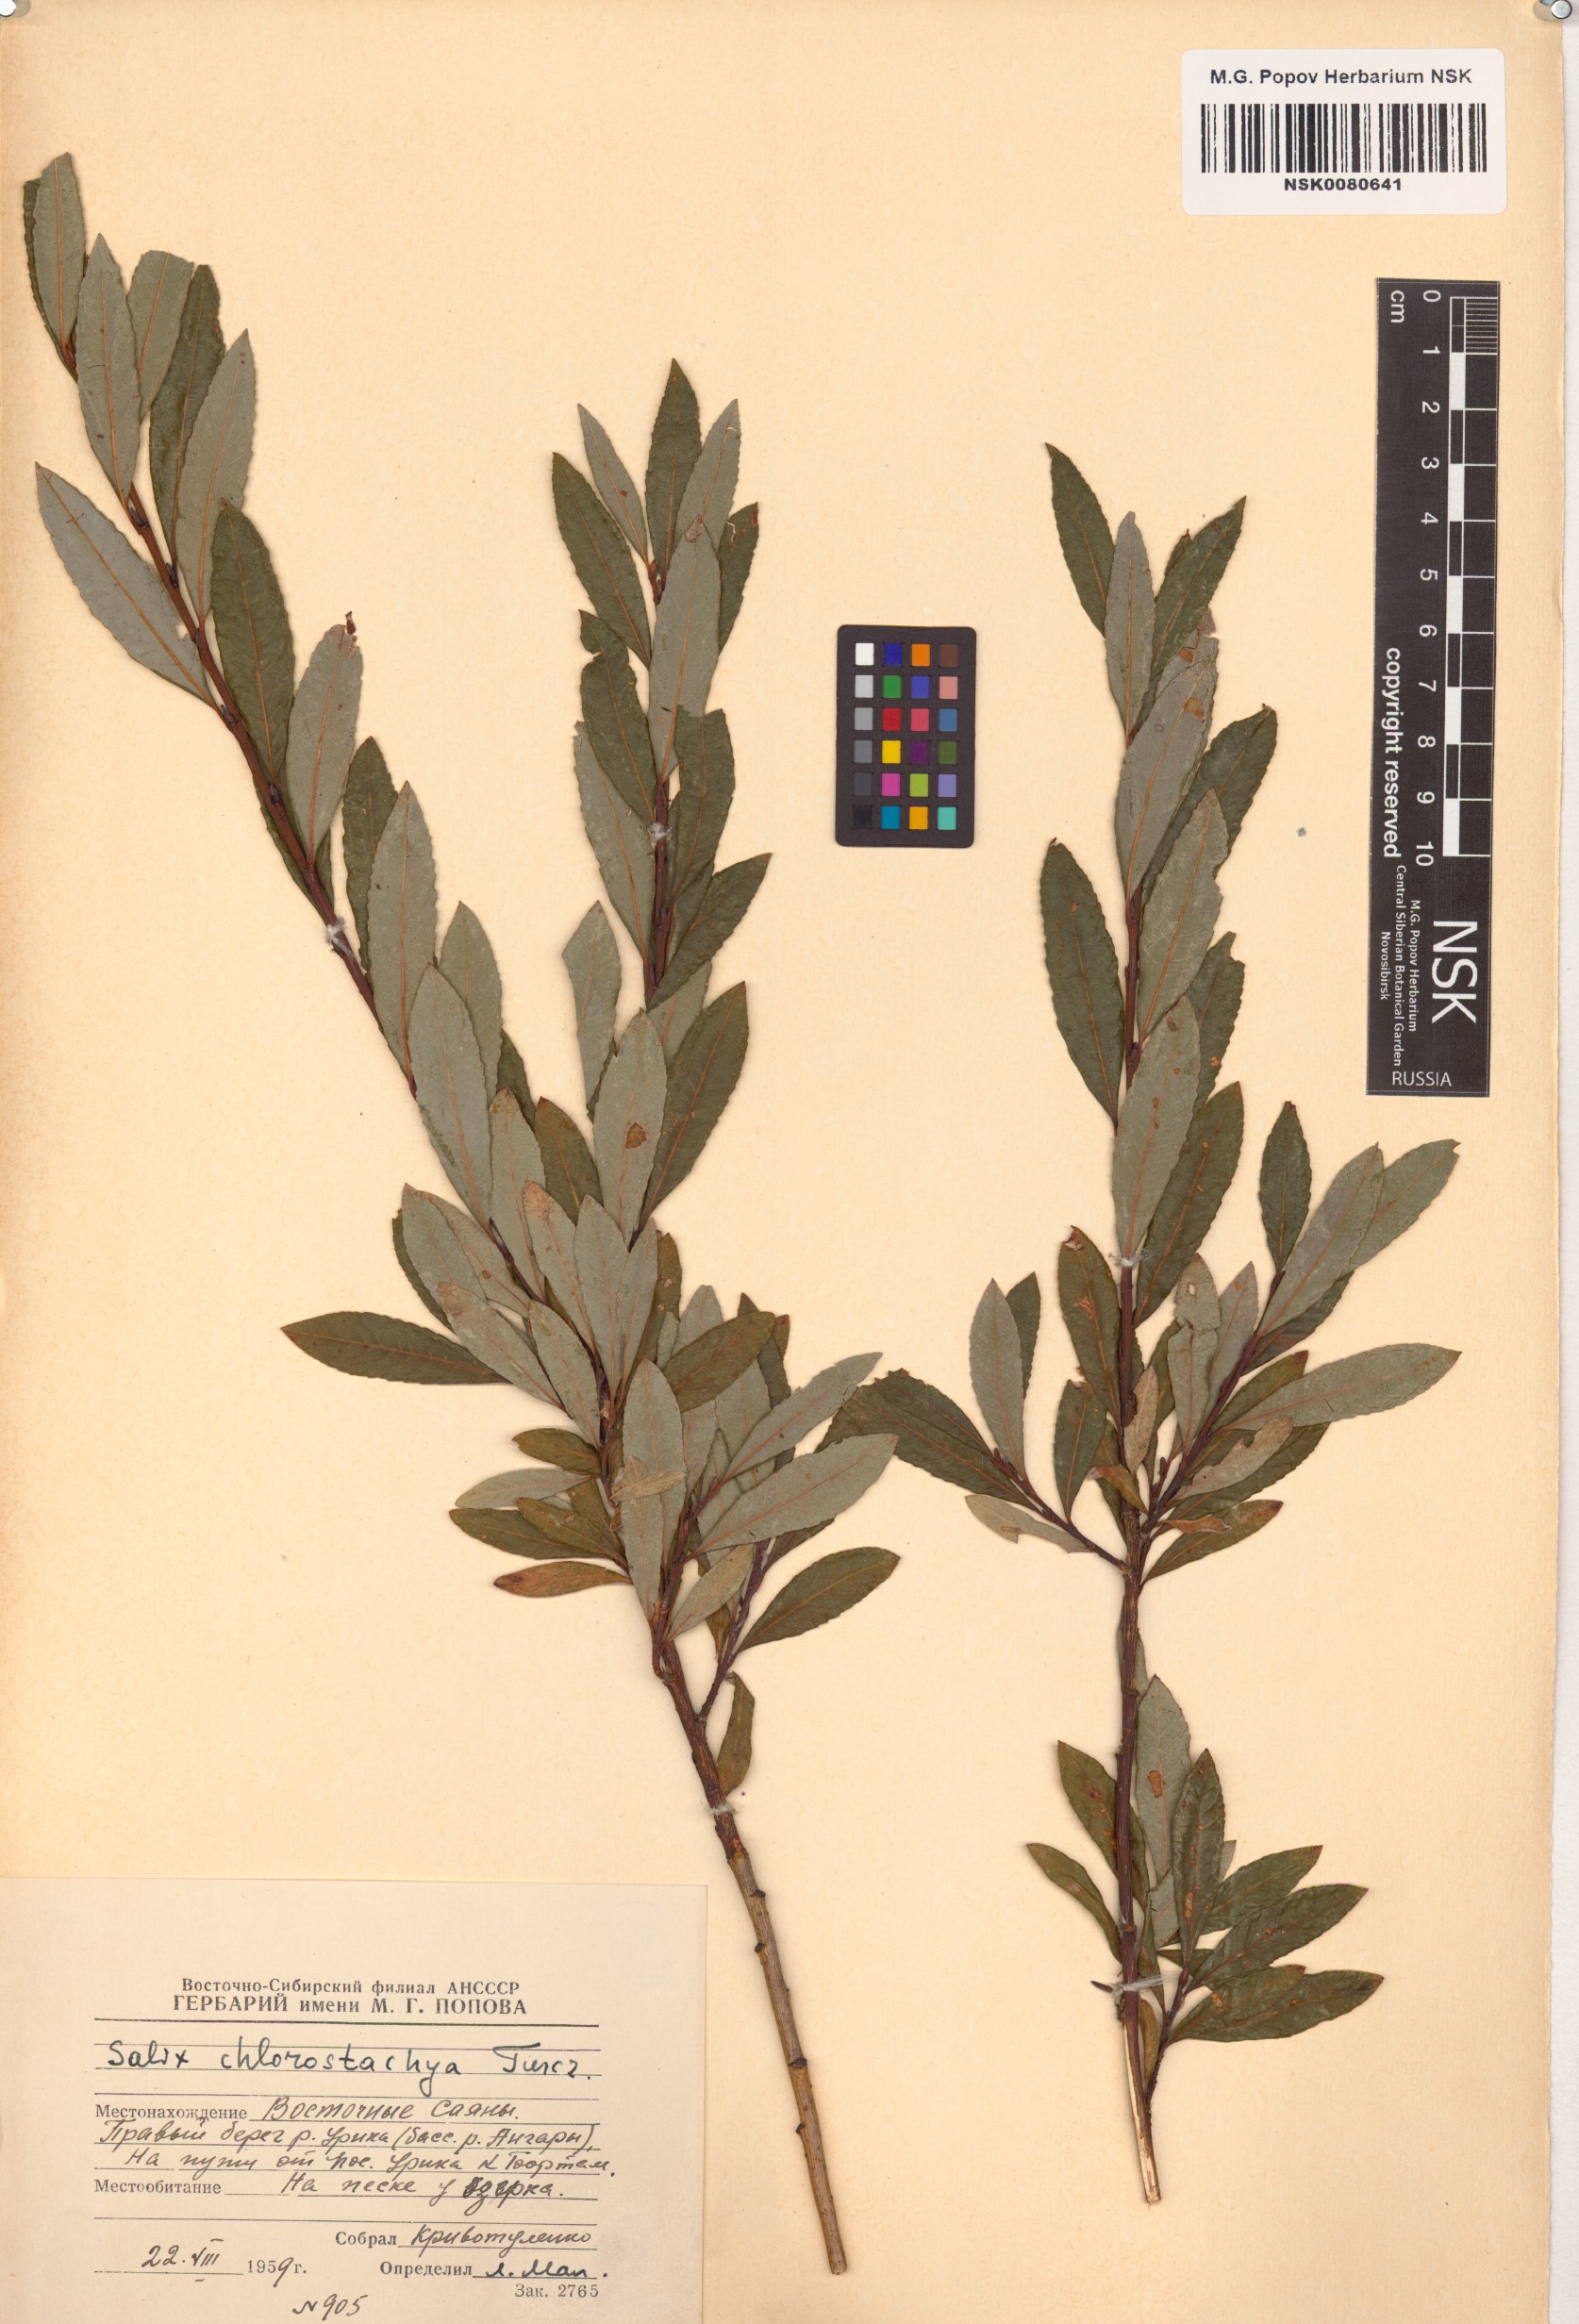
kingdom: Plantae
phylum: Tracheophyta
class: Magnoliopsida
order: Malpighiales
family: Salicaceae
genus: Salix
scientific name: Salix rhamnifolia
